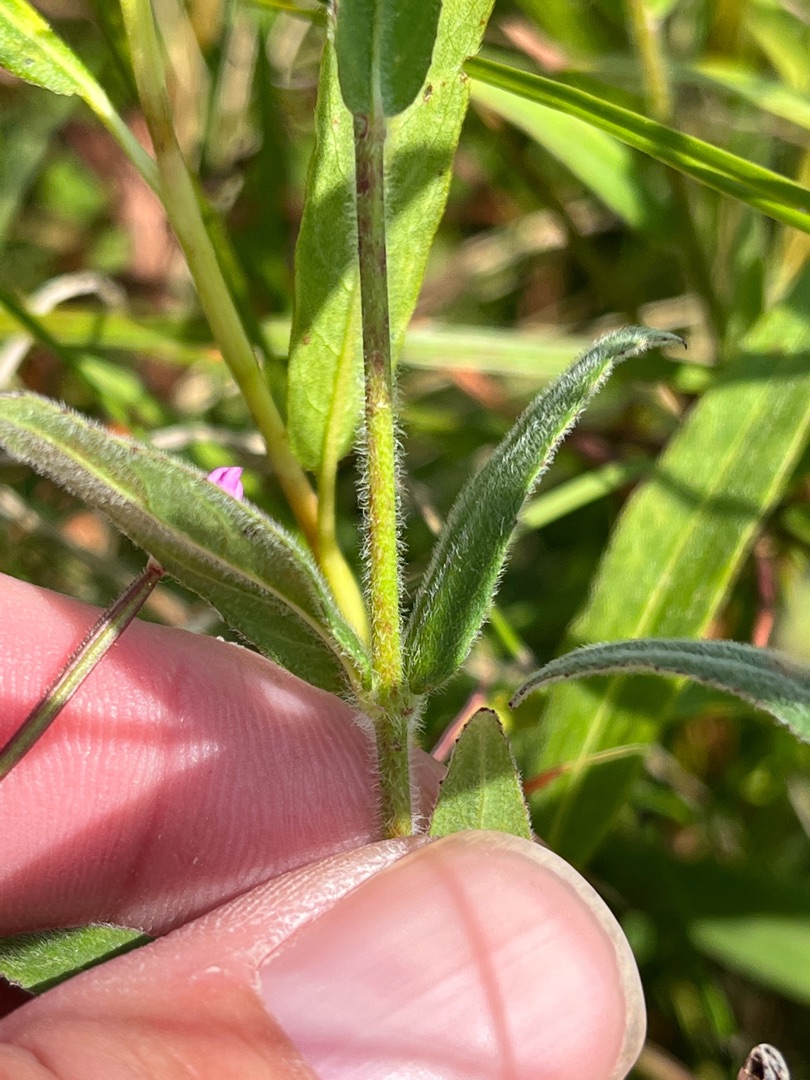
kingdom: Plantae
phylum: Tracheophyta
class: Magnoliopsida
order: Myrtales
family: Onagraceae
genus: Epilobium
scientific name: Epilobium parviflorum
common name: Dunet dueurt
